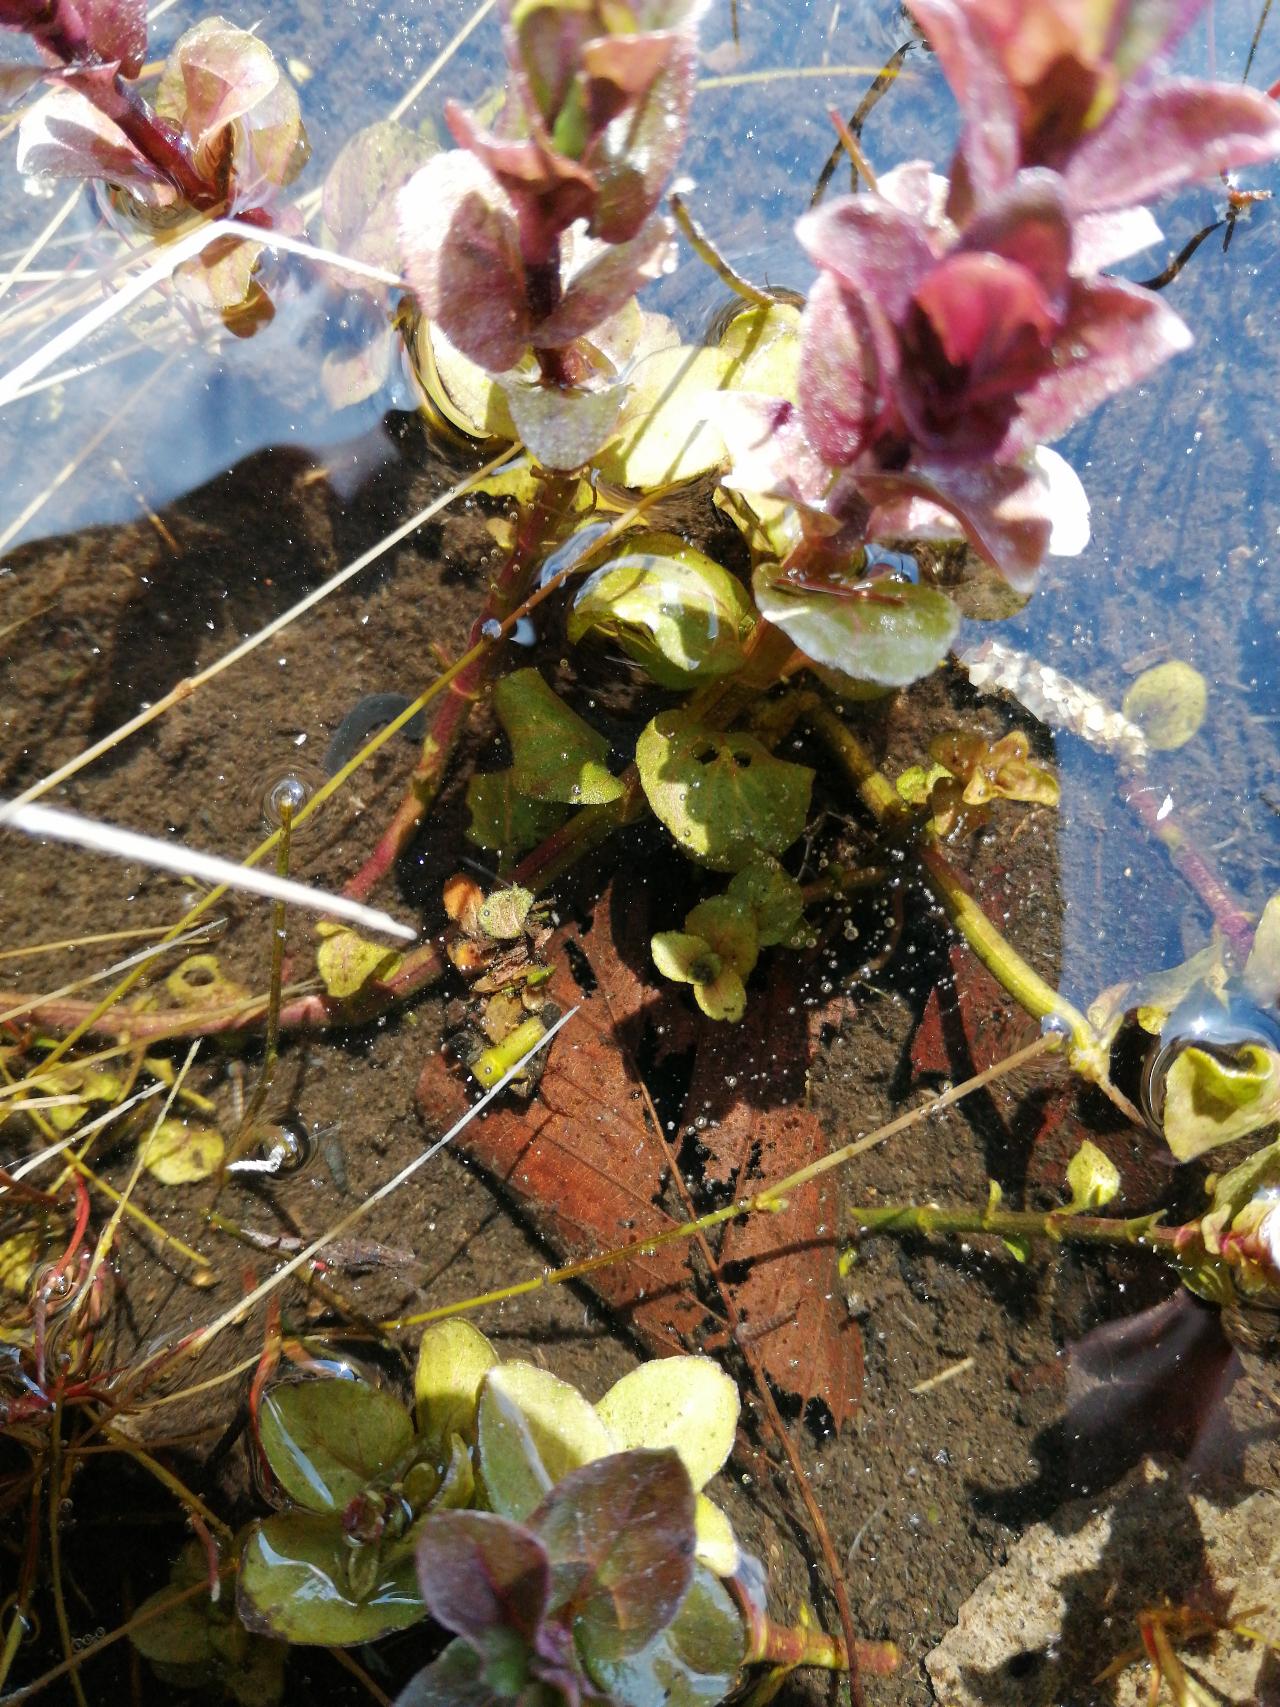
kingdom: Animalia
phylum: Arthropoda
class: Insecta
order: Trichoptera
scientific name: Trichoptera
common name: Vårfluer
